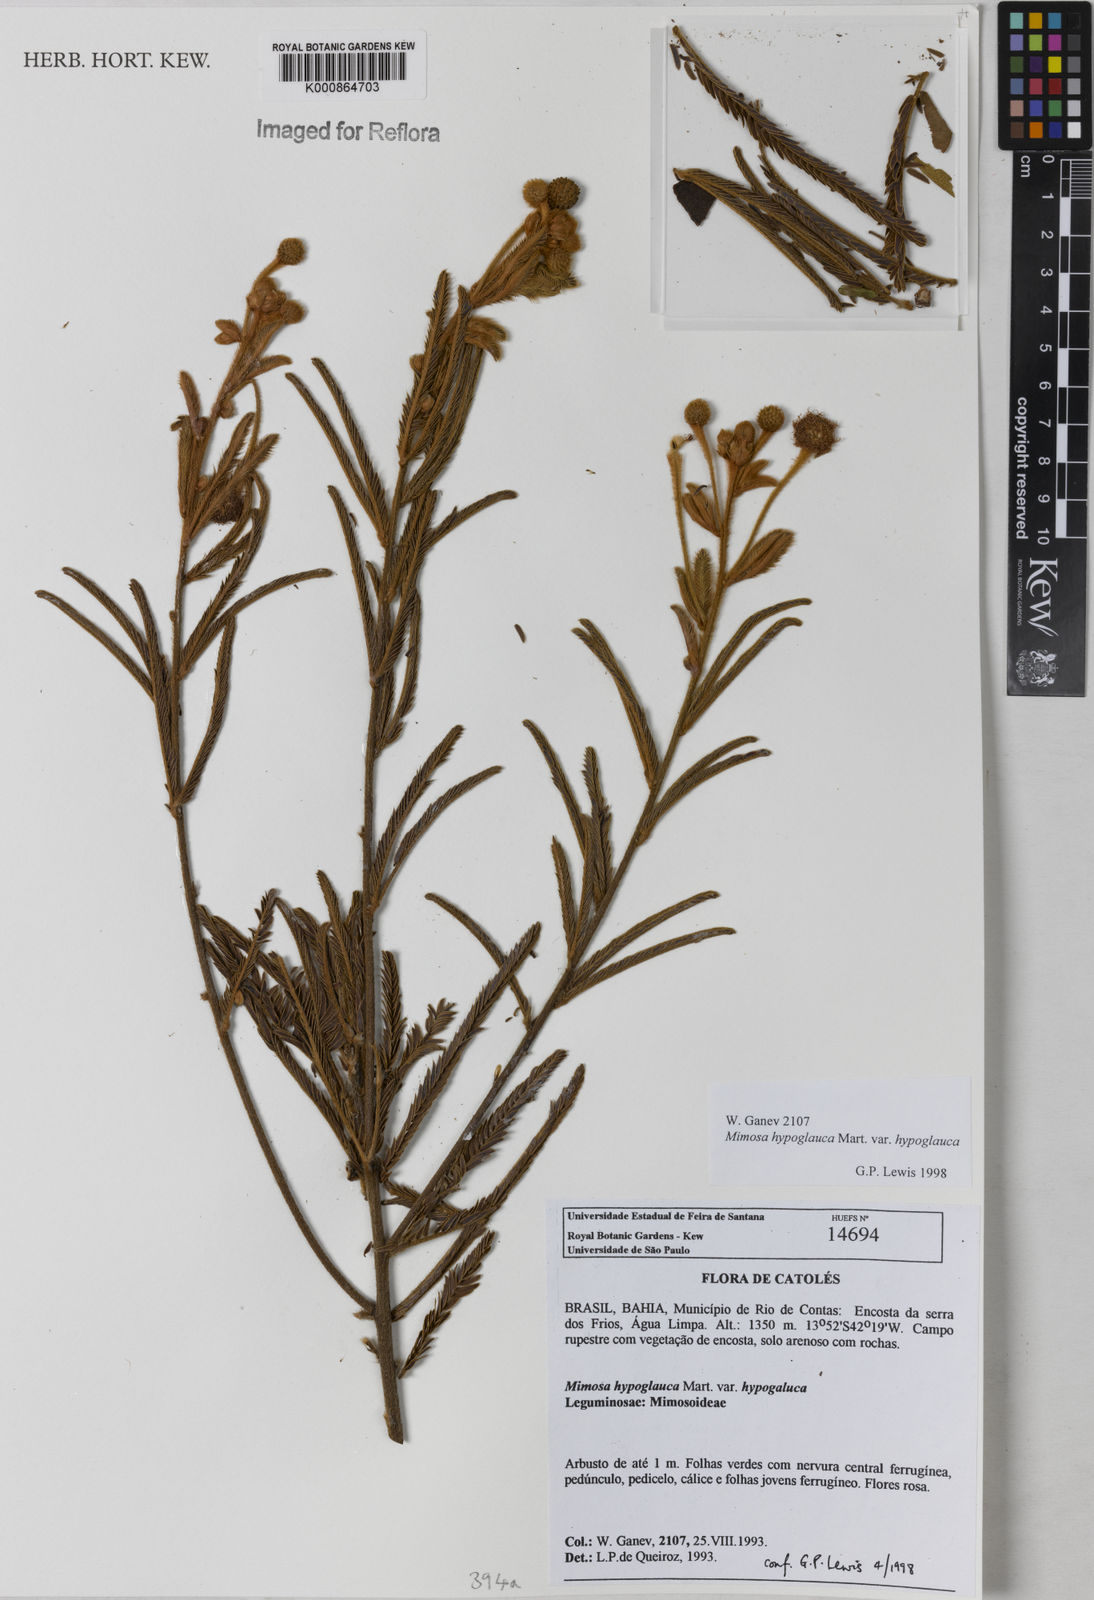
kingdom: Plantae
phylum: Tracheophyta
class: Magnoliopsida
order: Fabales
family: Fabaceae
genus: Mimosa
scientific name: Mimosa hypoglauca
